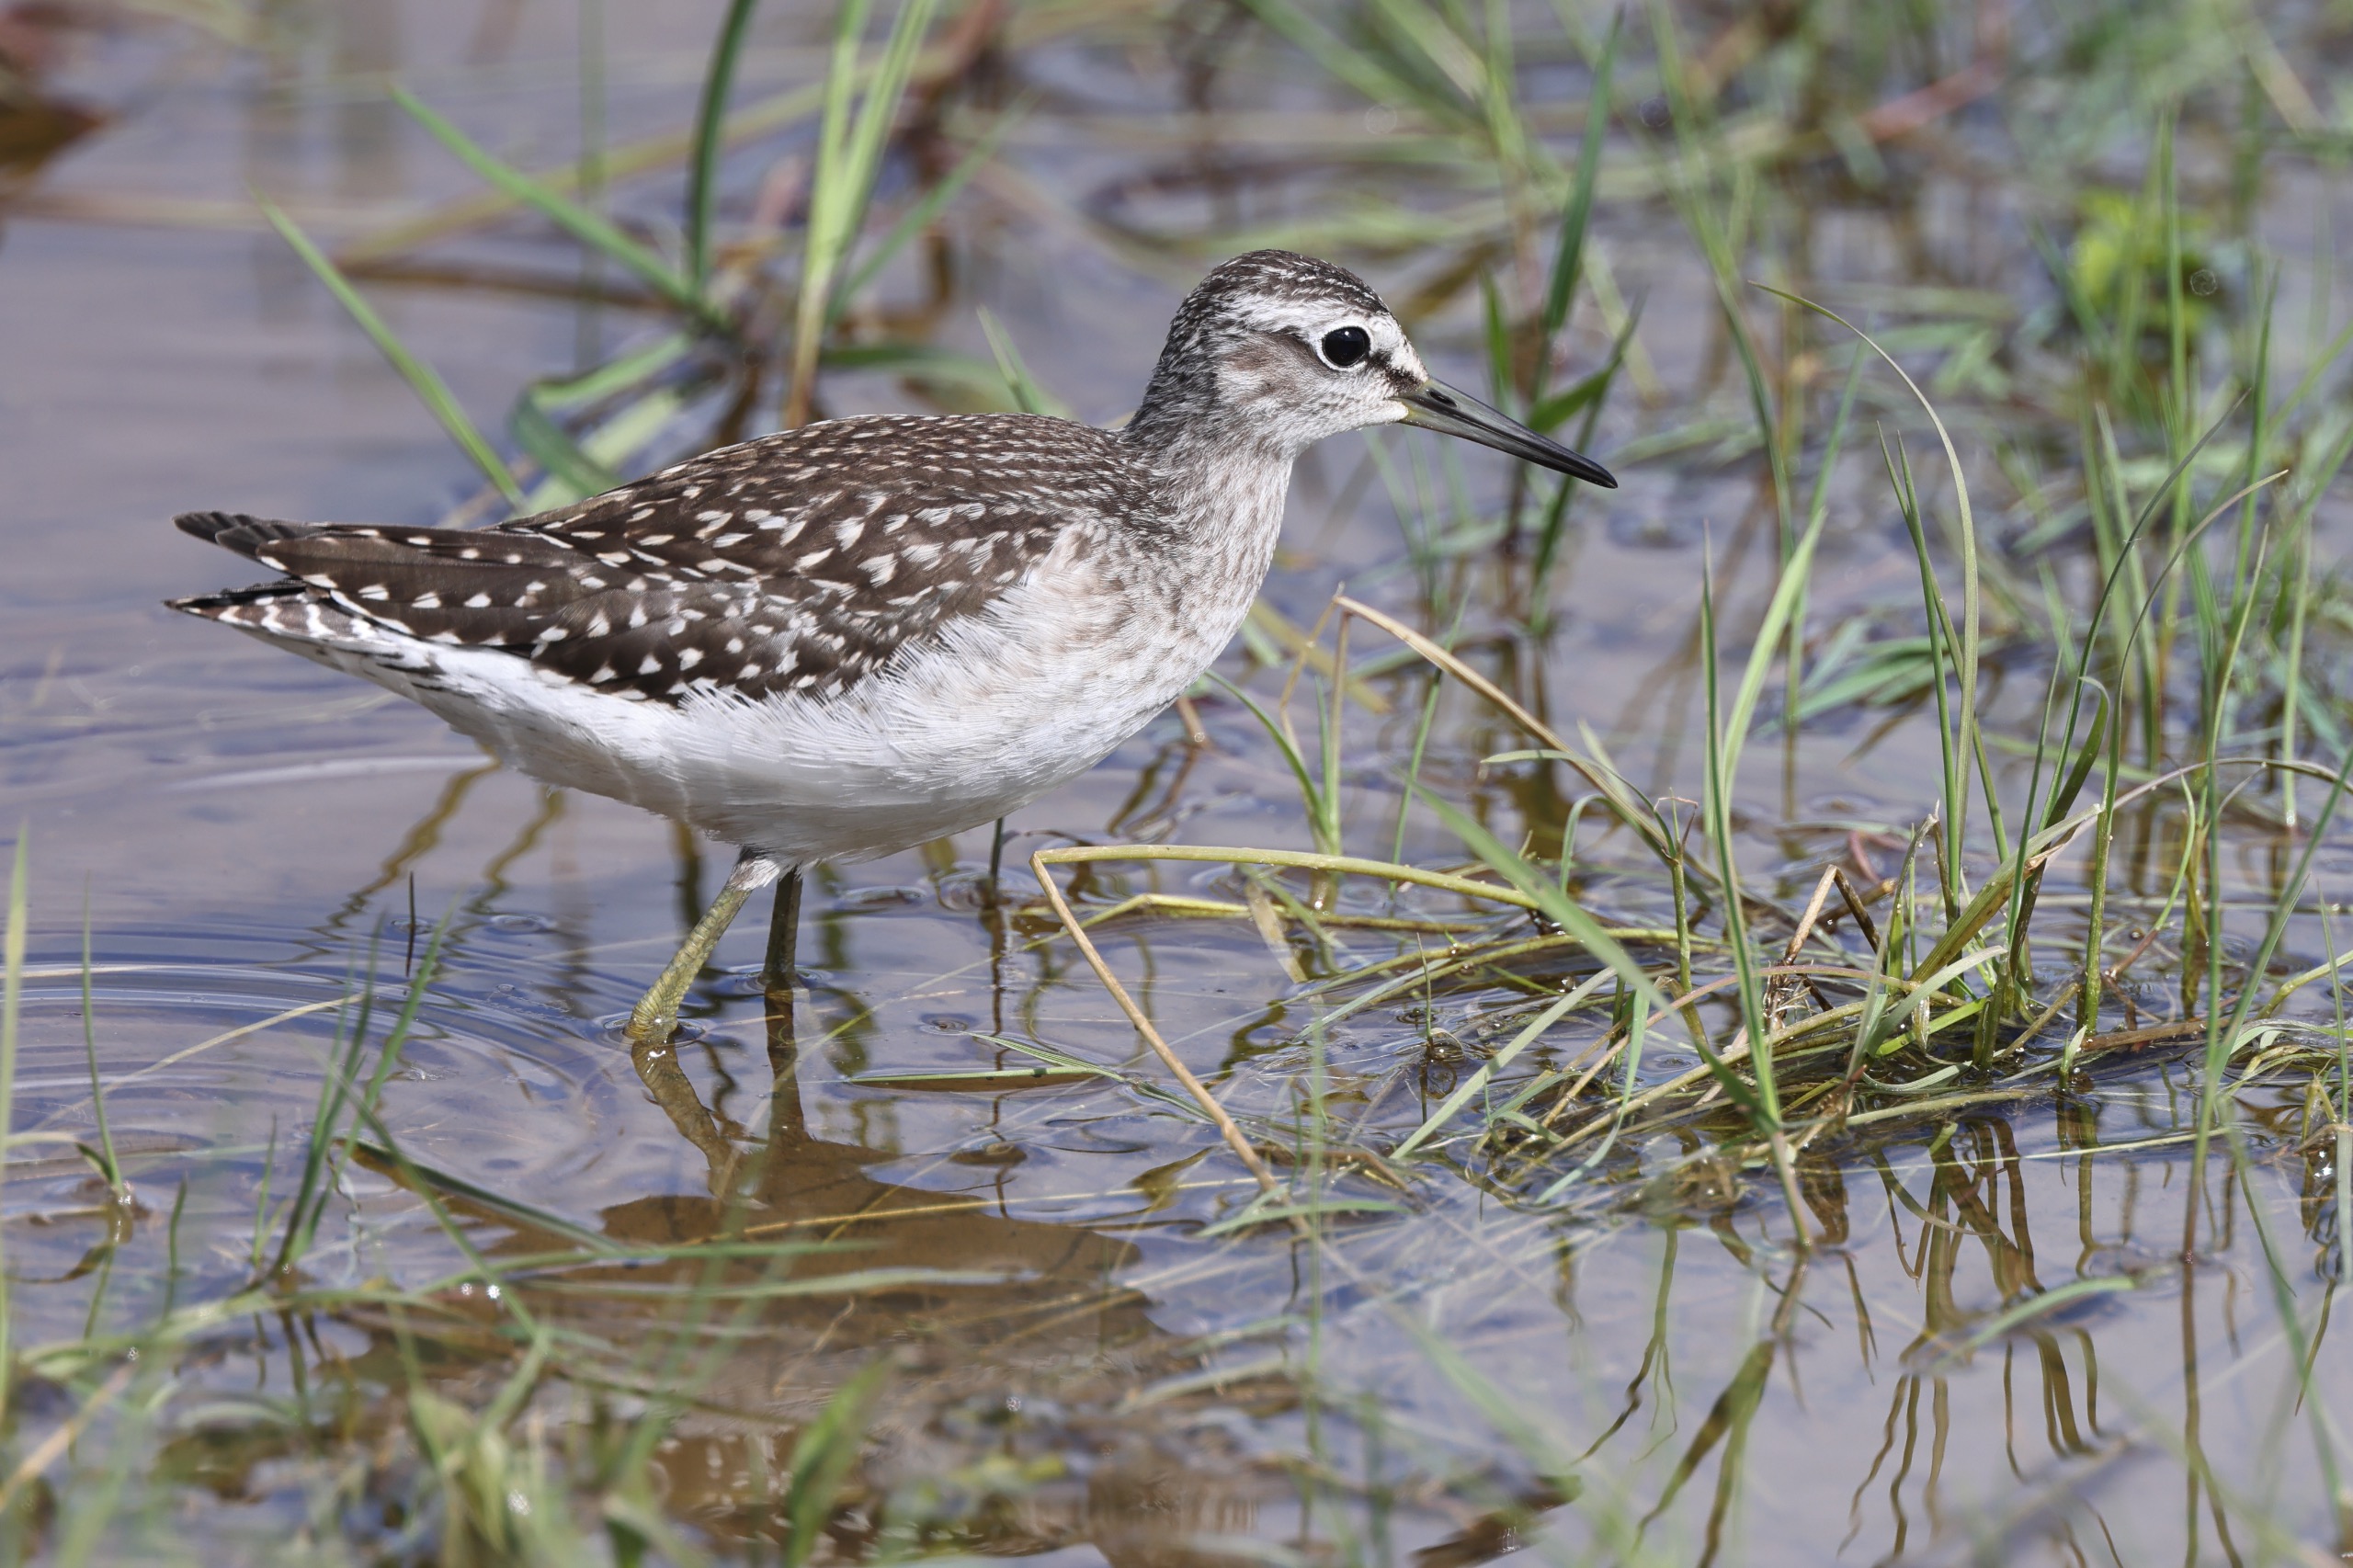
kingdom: Animalia
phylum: Chordata
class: Aves
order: Charadriiformes
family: Scolopacidae
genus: Tringa
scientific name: Tringa glareola
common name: Tinksmed
